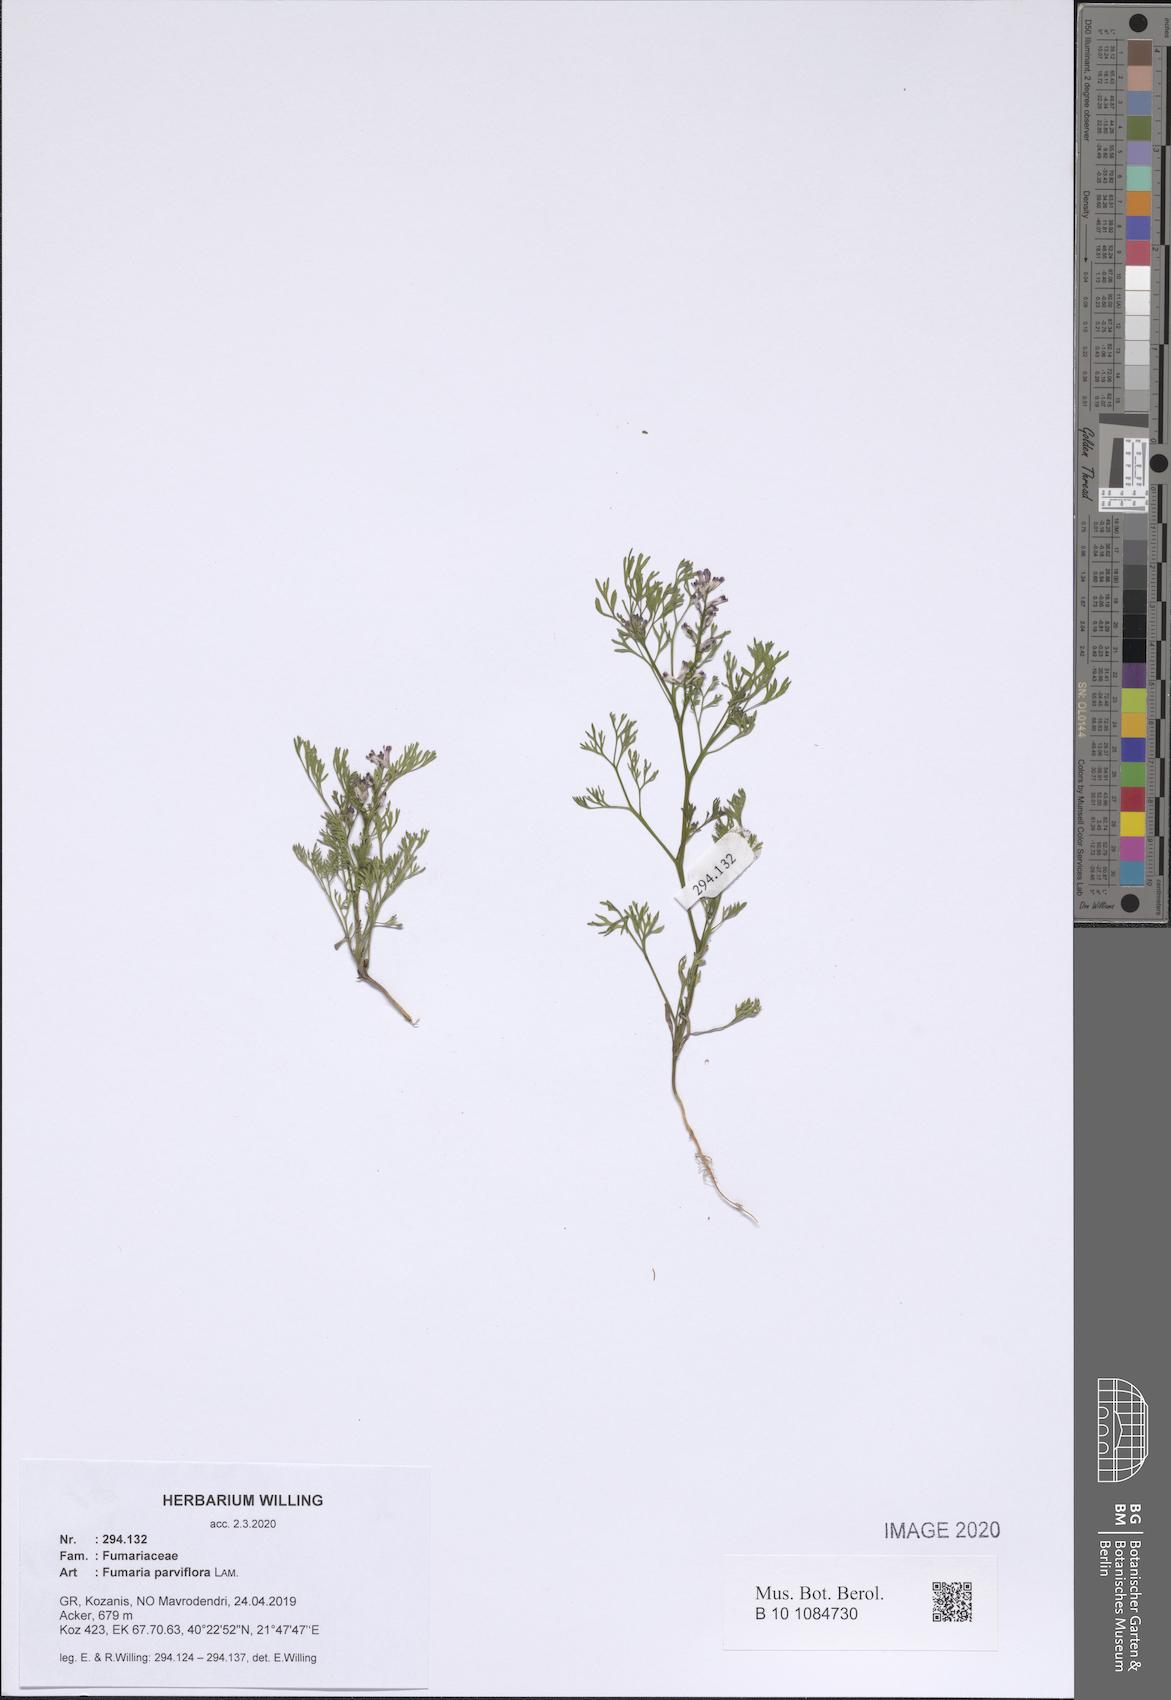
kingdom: Plantae
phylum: Tracheophyta
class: Magnoliopsida
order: Ranunculales
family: Papaveraceae
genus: Fumaria
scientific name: Fumaria parviflora
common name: Fine-leaved fumitory
